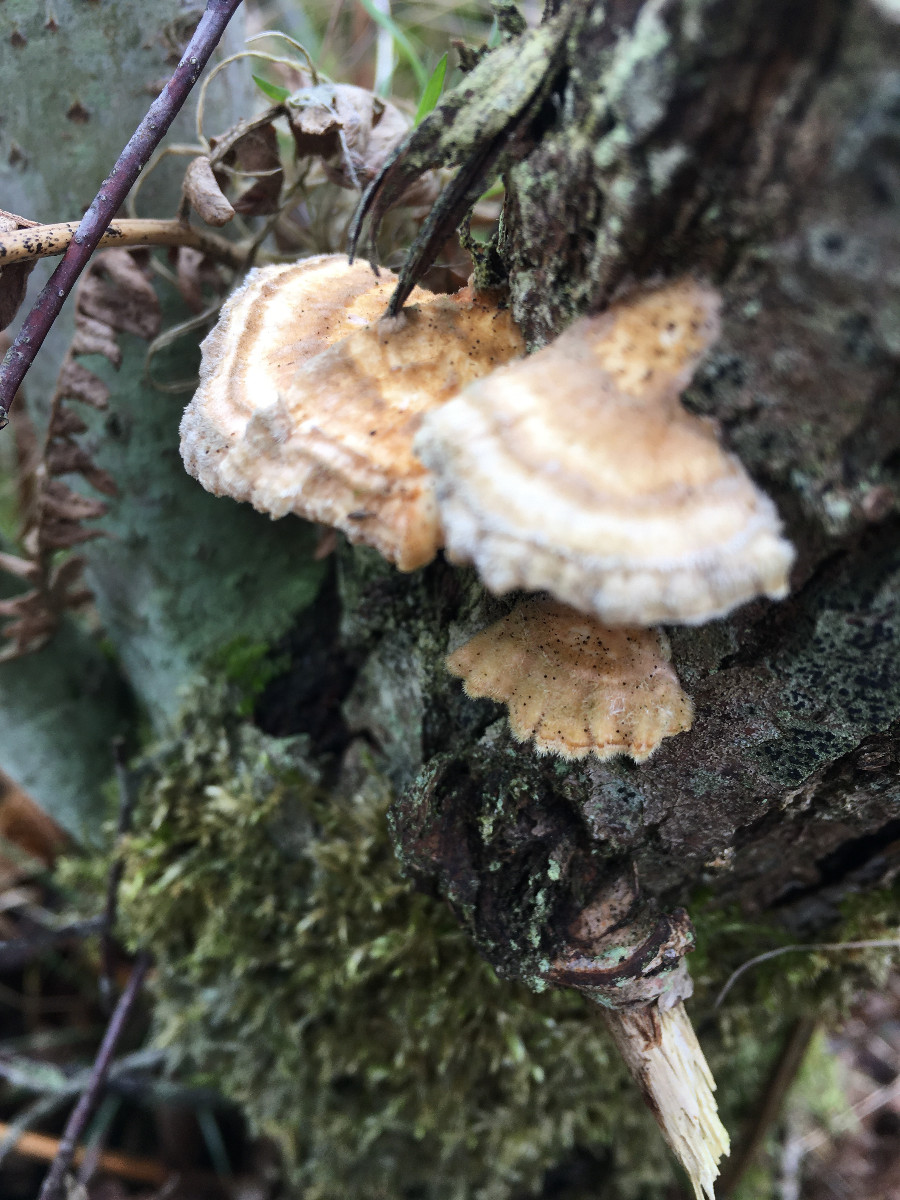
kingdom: Fungi
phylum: Basidiomycota
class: Agaricomycetes
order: Polyporales
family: Polyporaceae
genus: Trametes
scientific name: Trametes ochracea
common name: bæltet læderporesvamp
